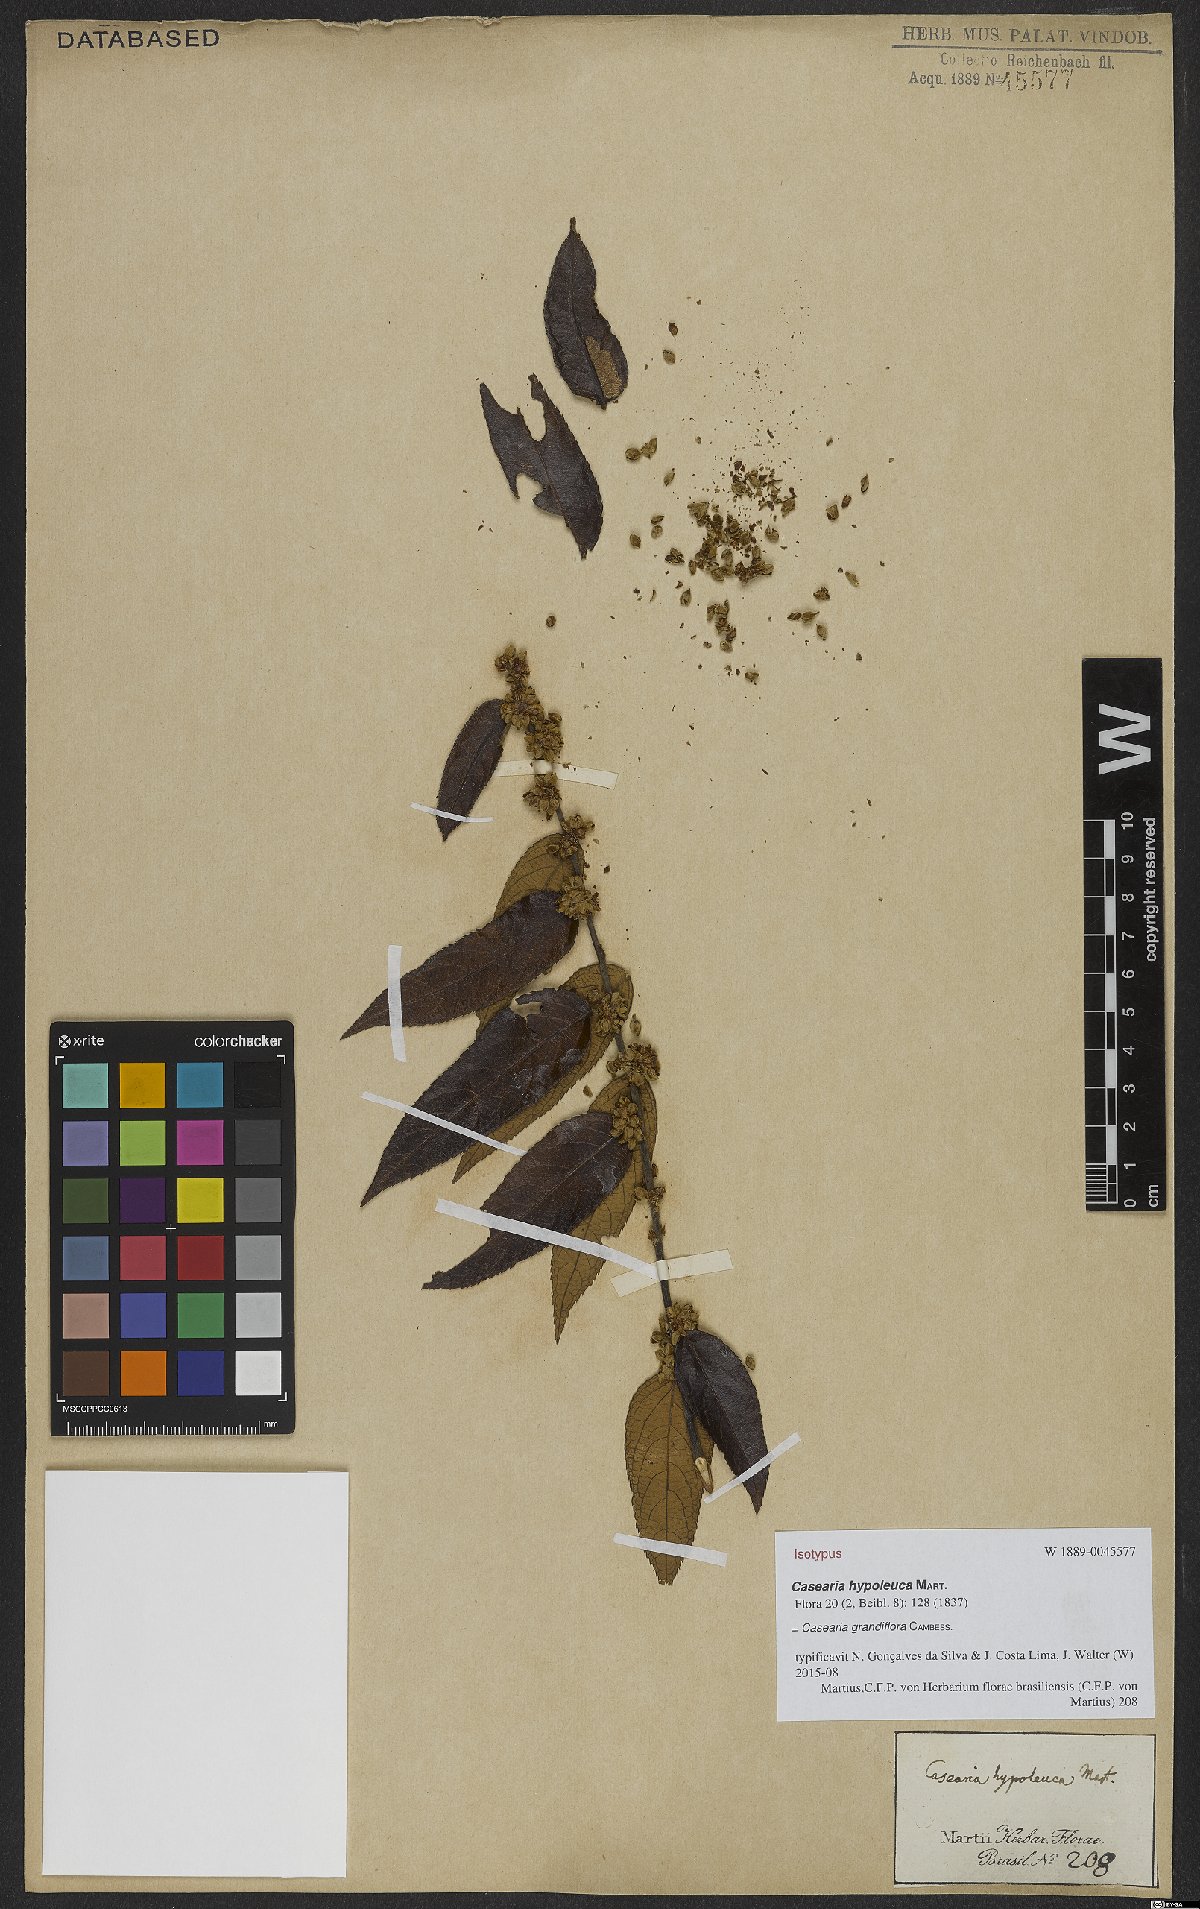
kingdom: Plantae
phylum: Tracheophyta
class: Magnoliopsida
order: Malpighiales
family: Salicaceae
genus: Casearia
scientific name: Casearia grandiflora
